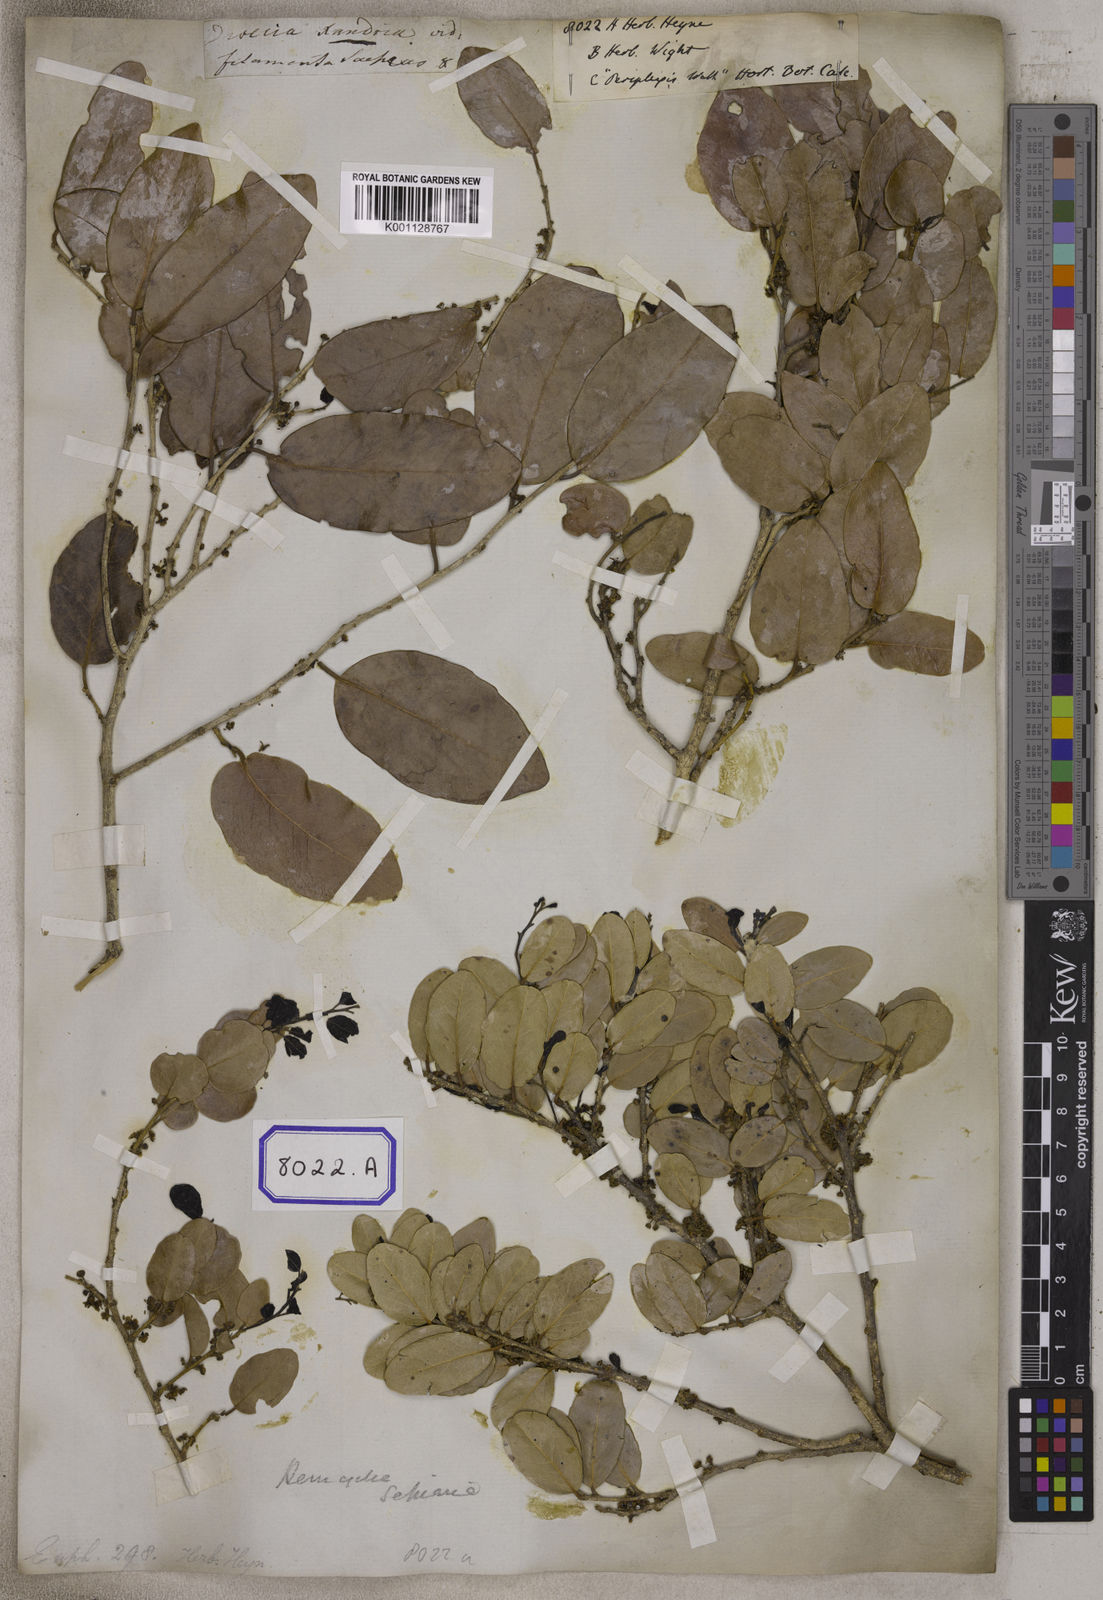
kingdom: Plantae
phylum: Tracheophyta
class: Magnoliopsida
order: Malpighiales
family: Euphorbiaceae
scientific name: Euphorbiaceae
